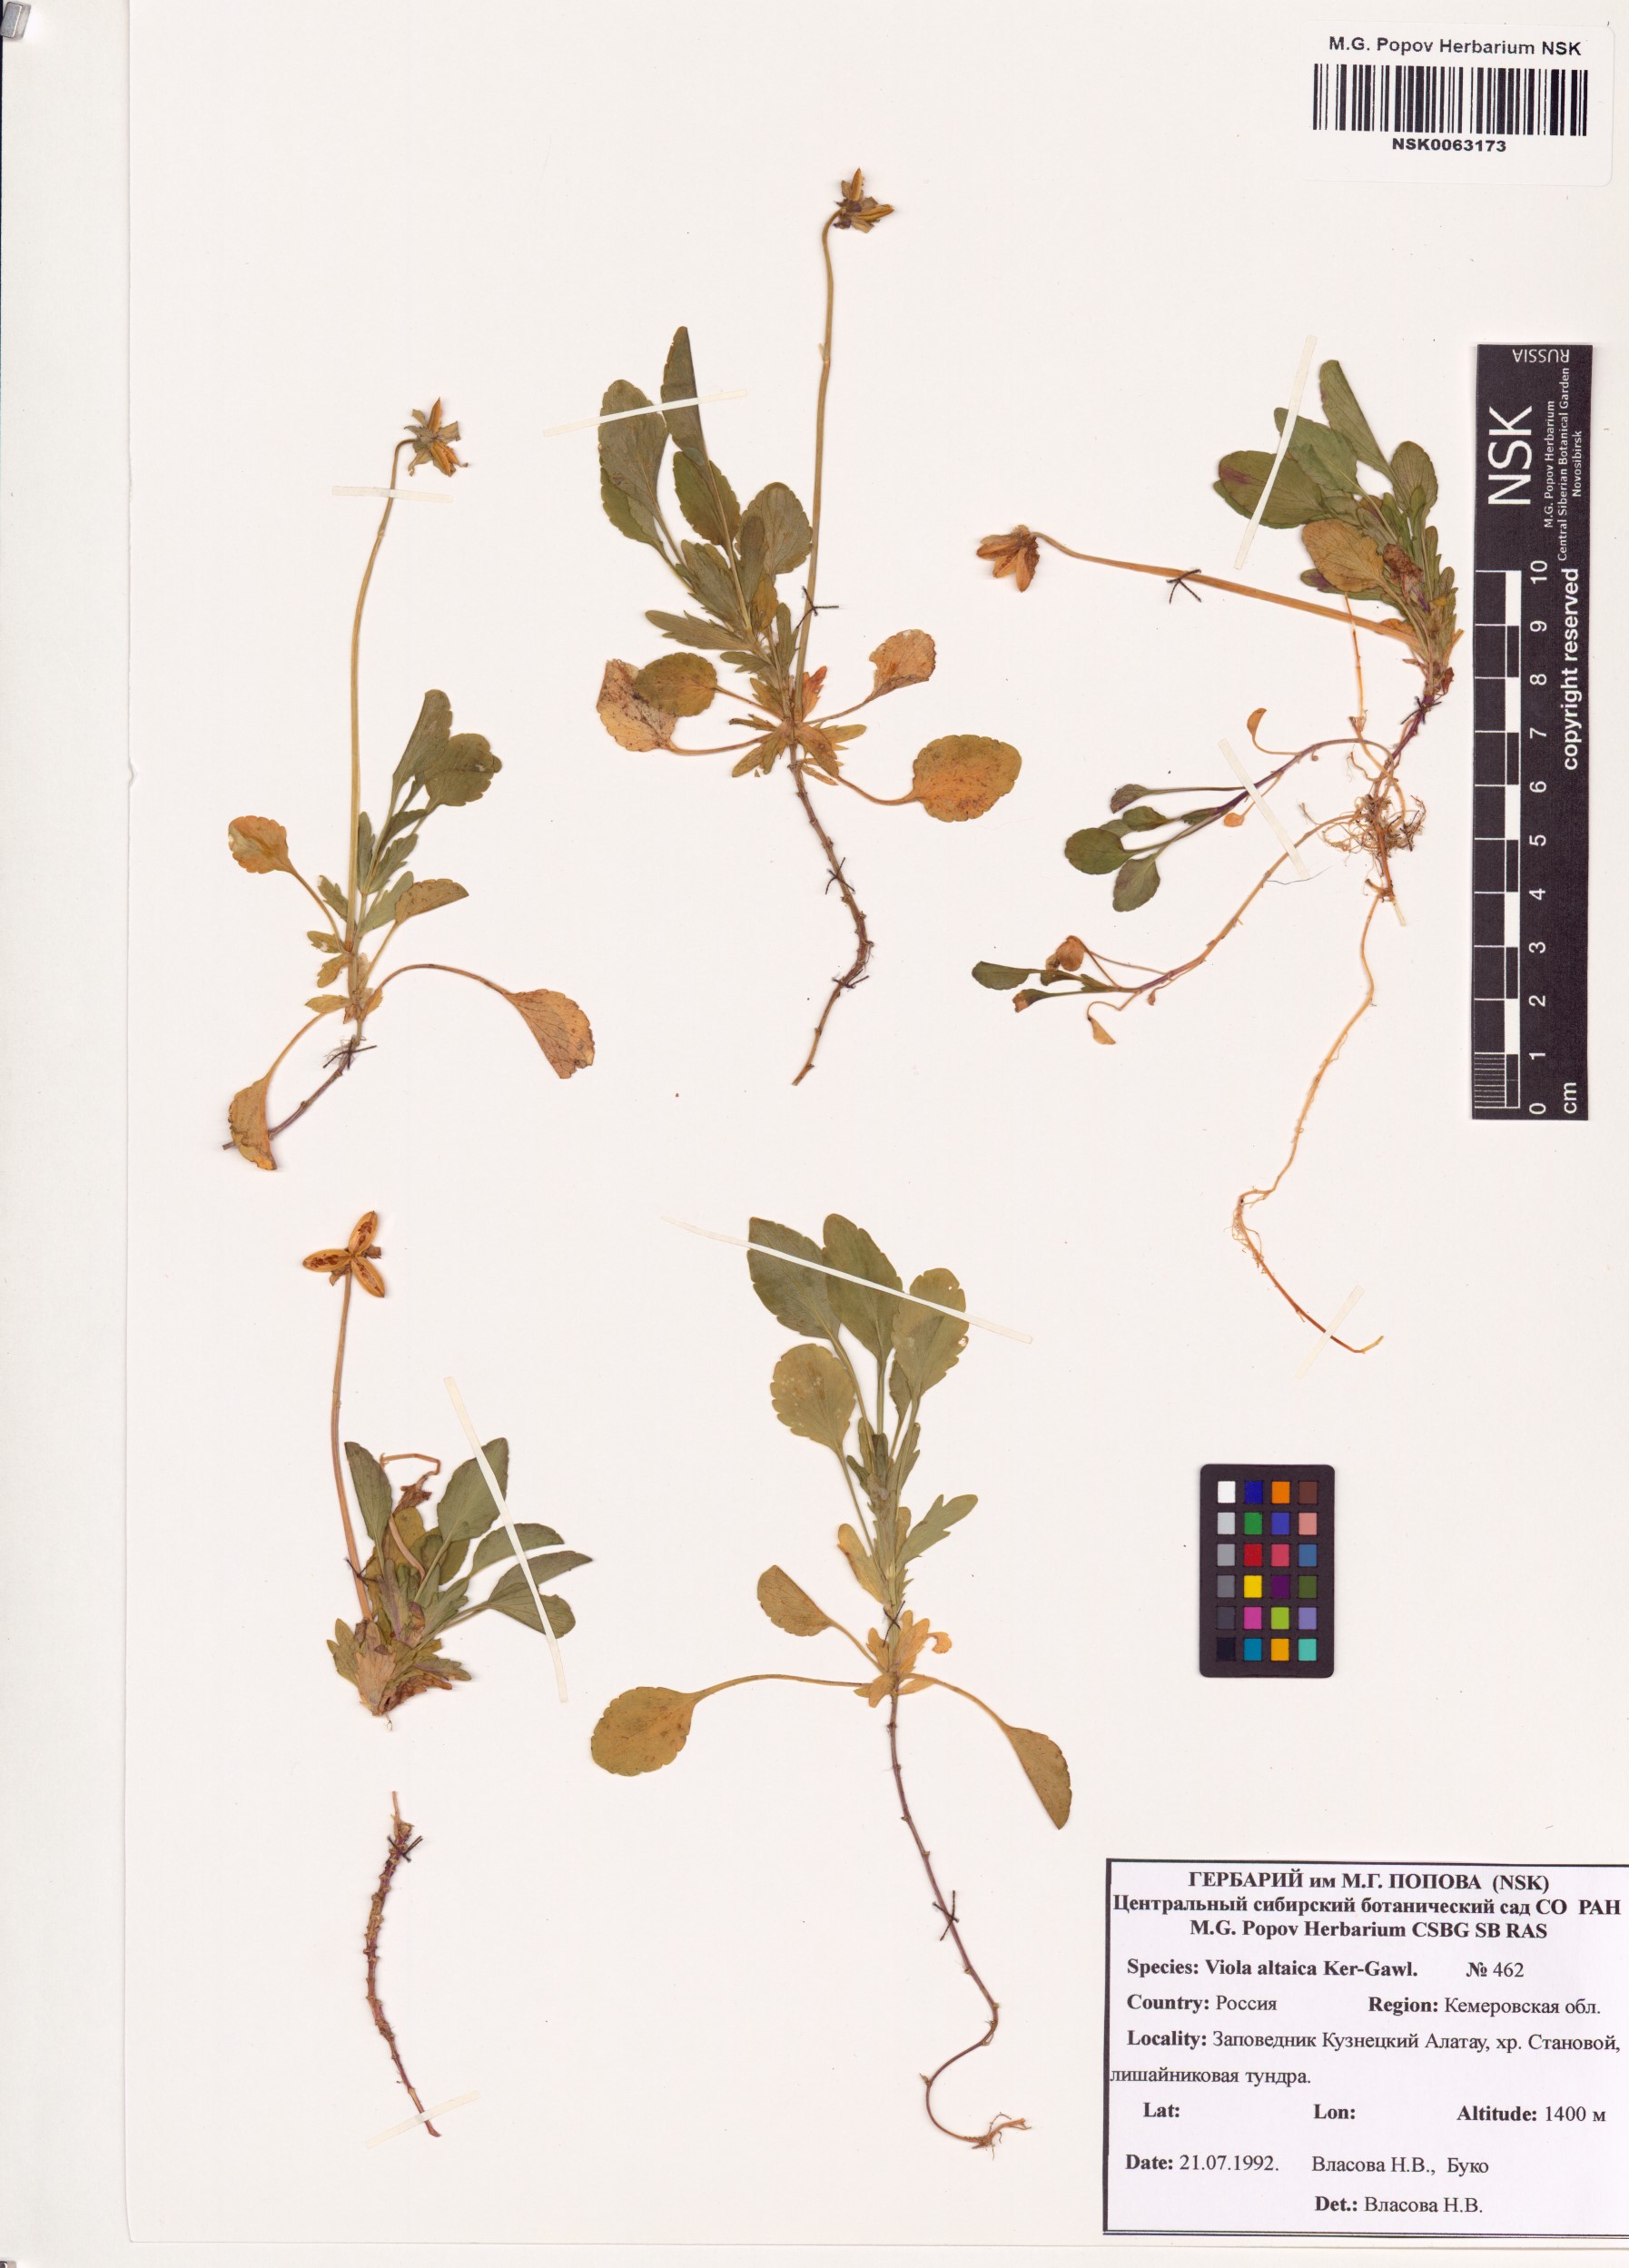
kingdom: Plantae
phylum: Tracheophyta
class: Magnoliopsida
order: Malpighiales
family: Violaceae
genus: Viola
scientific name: Viola altaica
